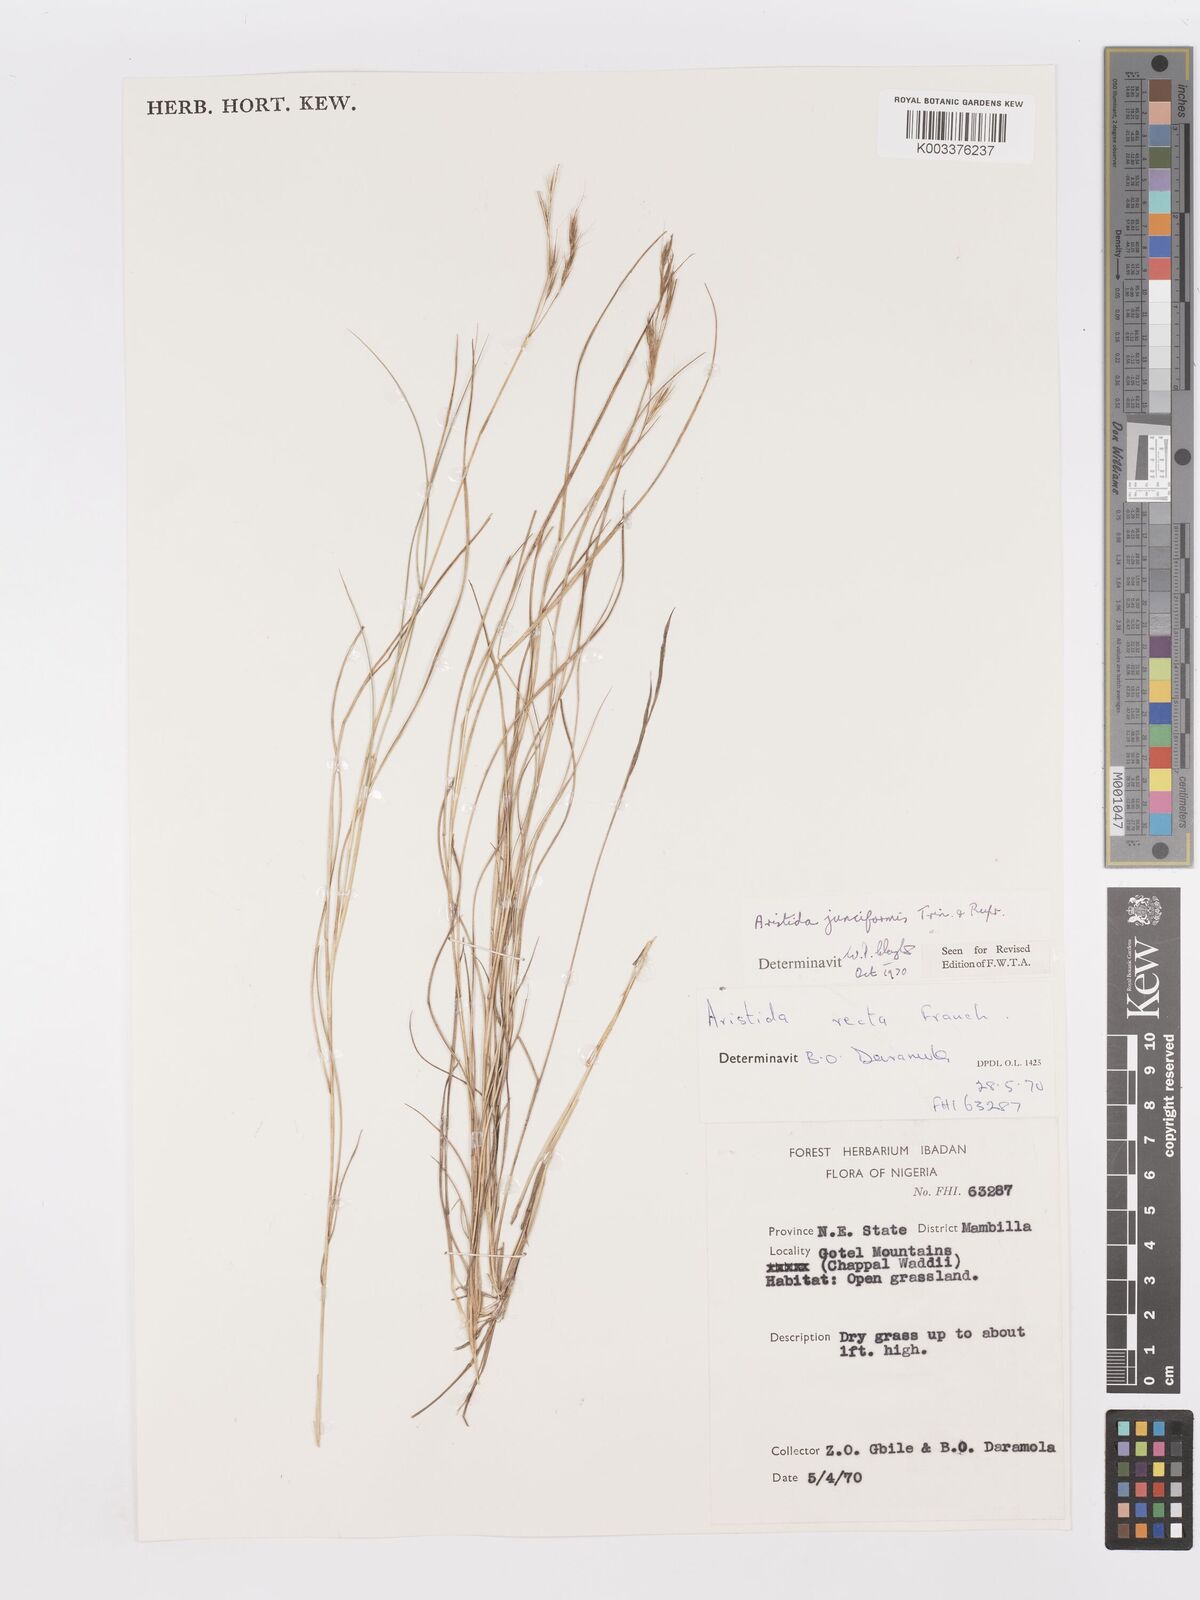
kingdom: Plantae
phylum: Tracheophyta
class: Liliopsida
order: Poales
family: Poaceae
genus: Aristida
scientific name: Aristida junciformis
